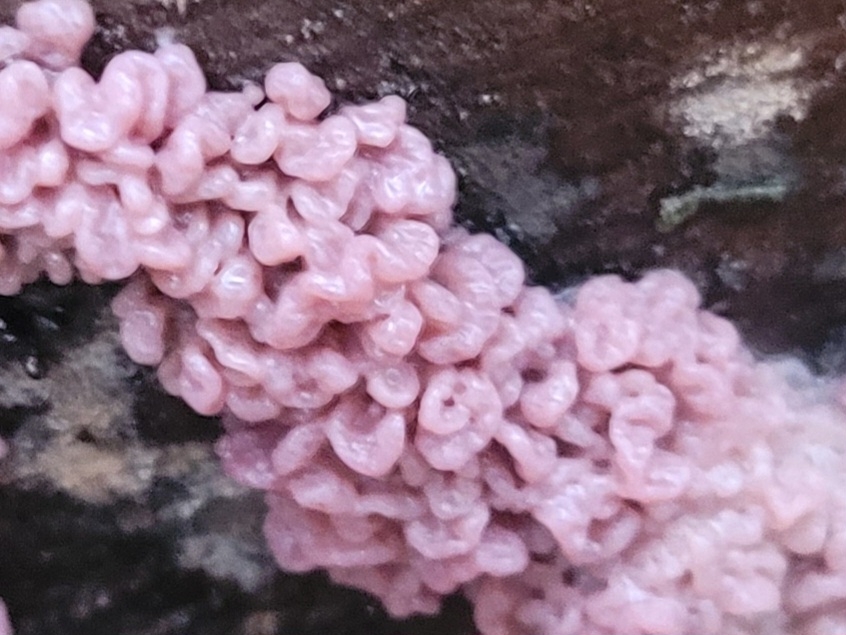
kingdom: Fungi
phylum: Ascomycota
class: Leotiomycetes
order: Helotiales
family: Gelatinodiscaceae
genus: Ascocoryne
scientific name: Ascocoryne sarcoides
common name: rødlilla sejskive
